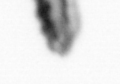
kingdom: Animalia
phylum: Annelida
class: Polychaeta
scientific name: Polychaeta
